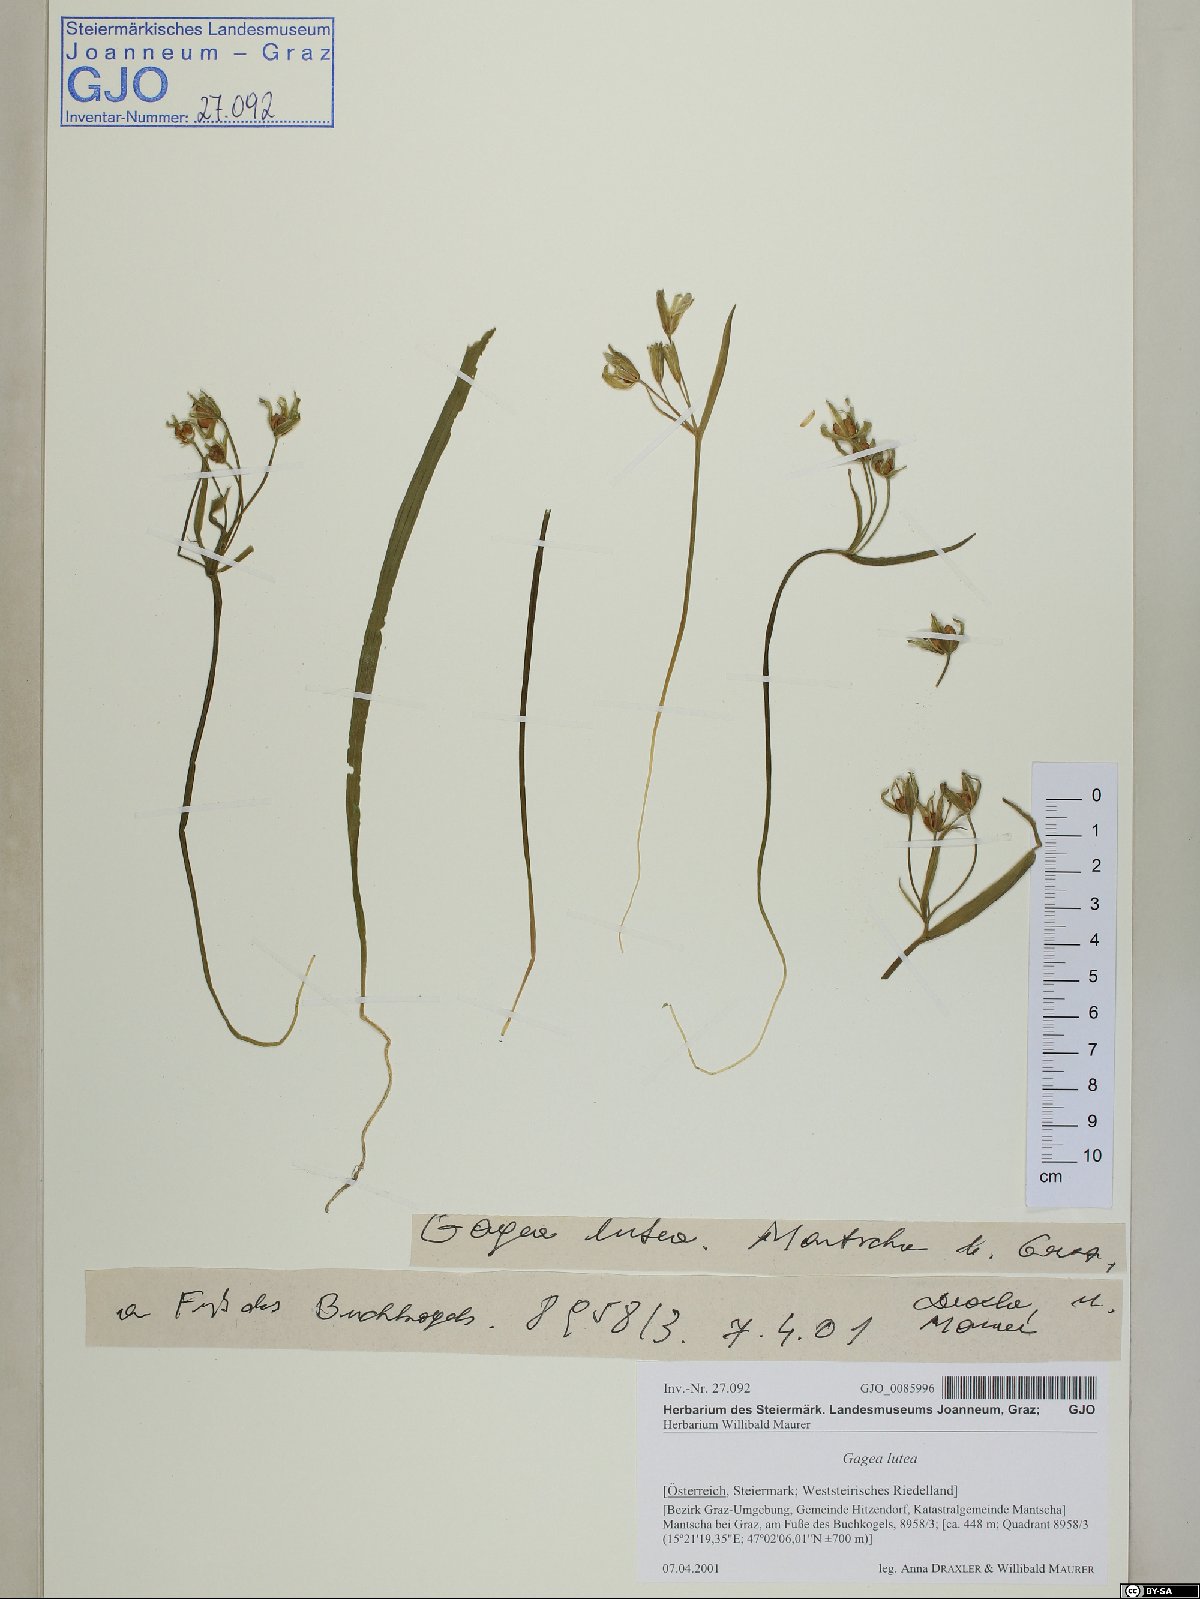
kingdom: Plantae
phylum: Tracheophyta
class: Liliopsida
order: Liliales
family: Liliaceae
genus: Gagea
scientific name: Gagea lutea
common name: Yellow star-of-bethlehem
